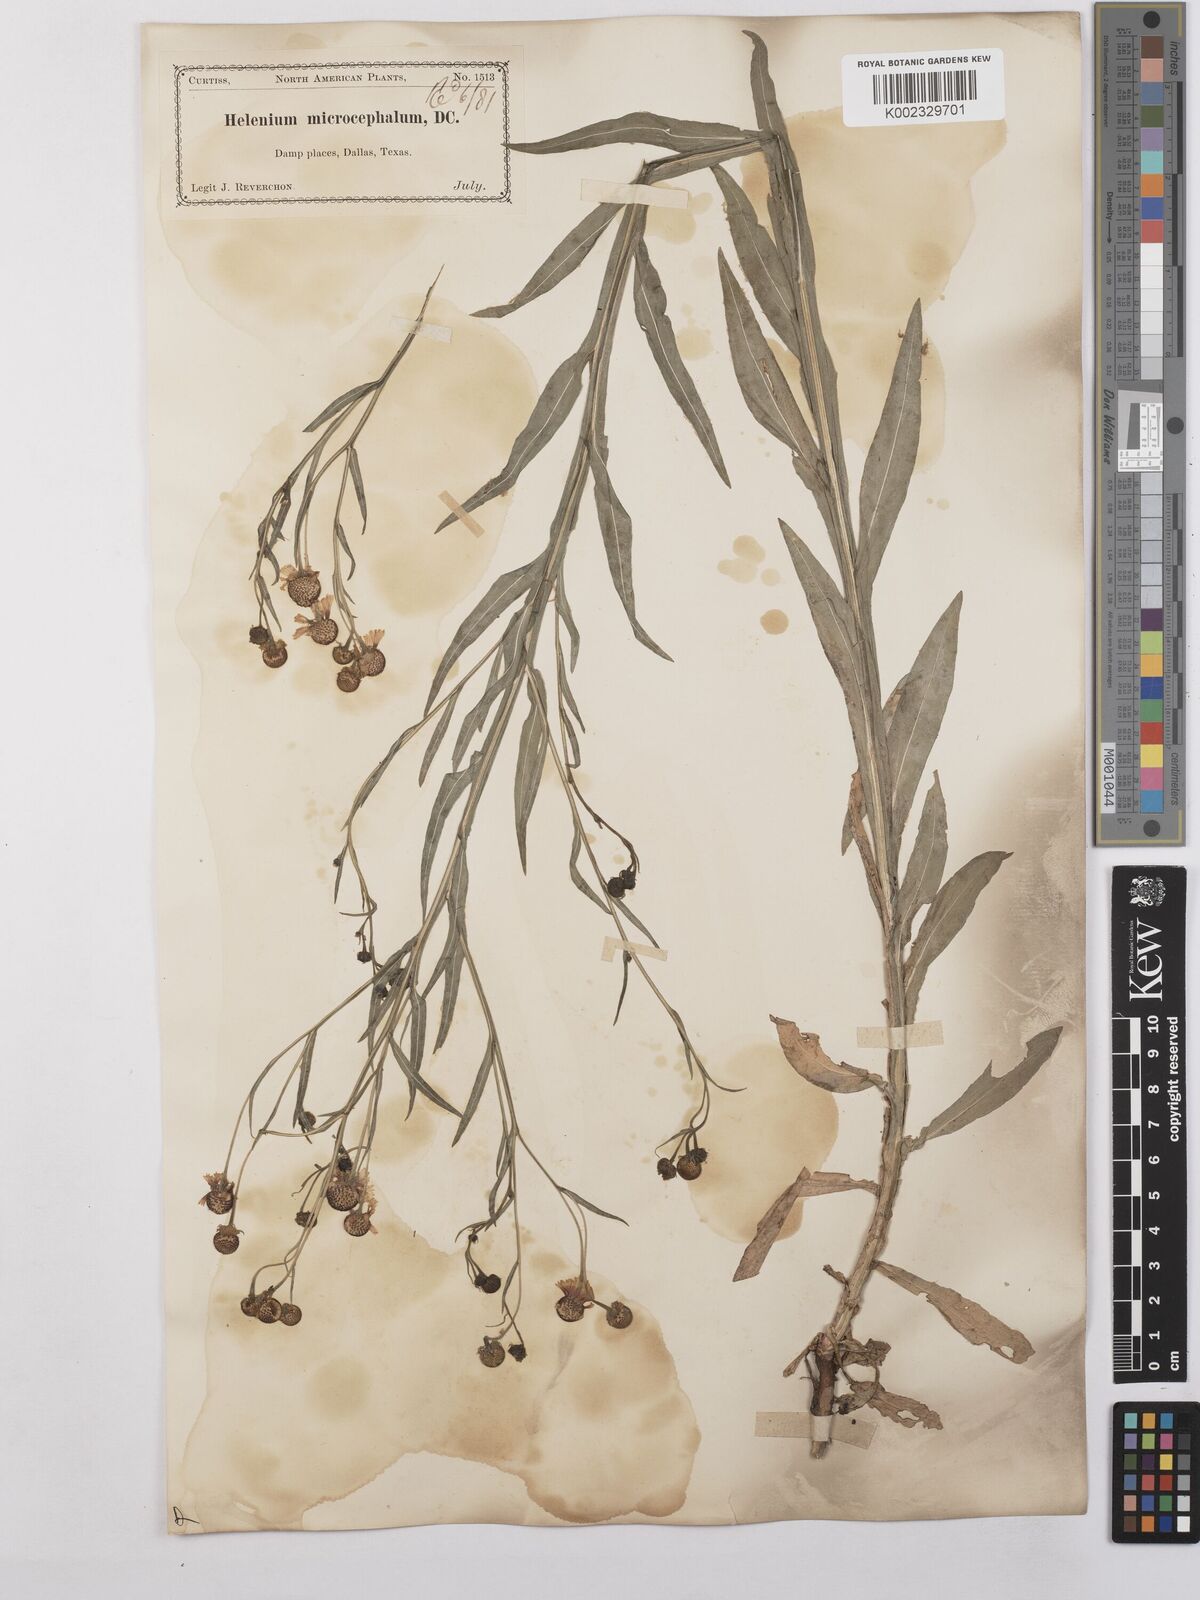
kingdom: Plantae
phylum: Tracheophyta
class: Magnoliopsida
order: Asterales
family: Asteraceae
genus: Helenium
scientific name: Helenium microcephalum
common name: Smallhead sneezeweed
